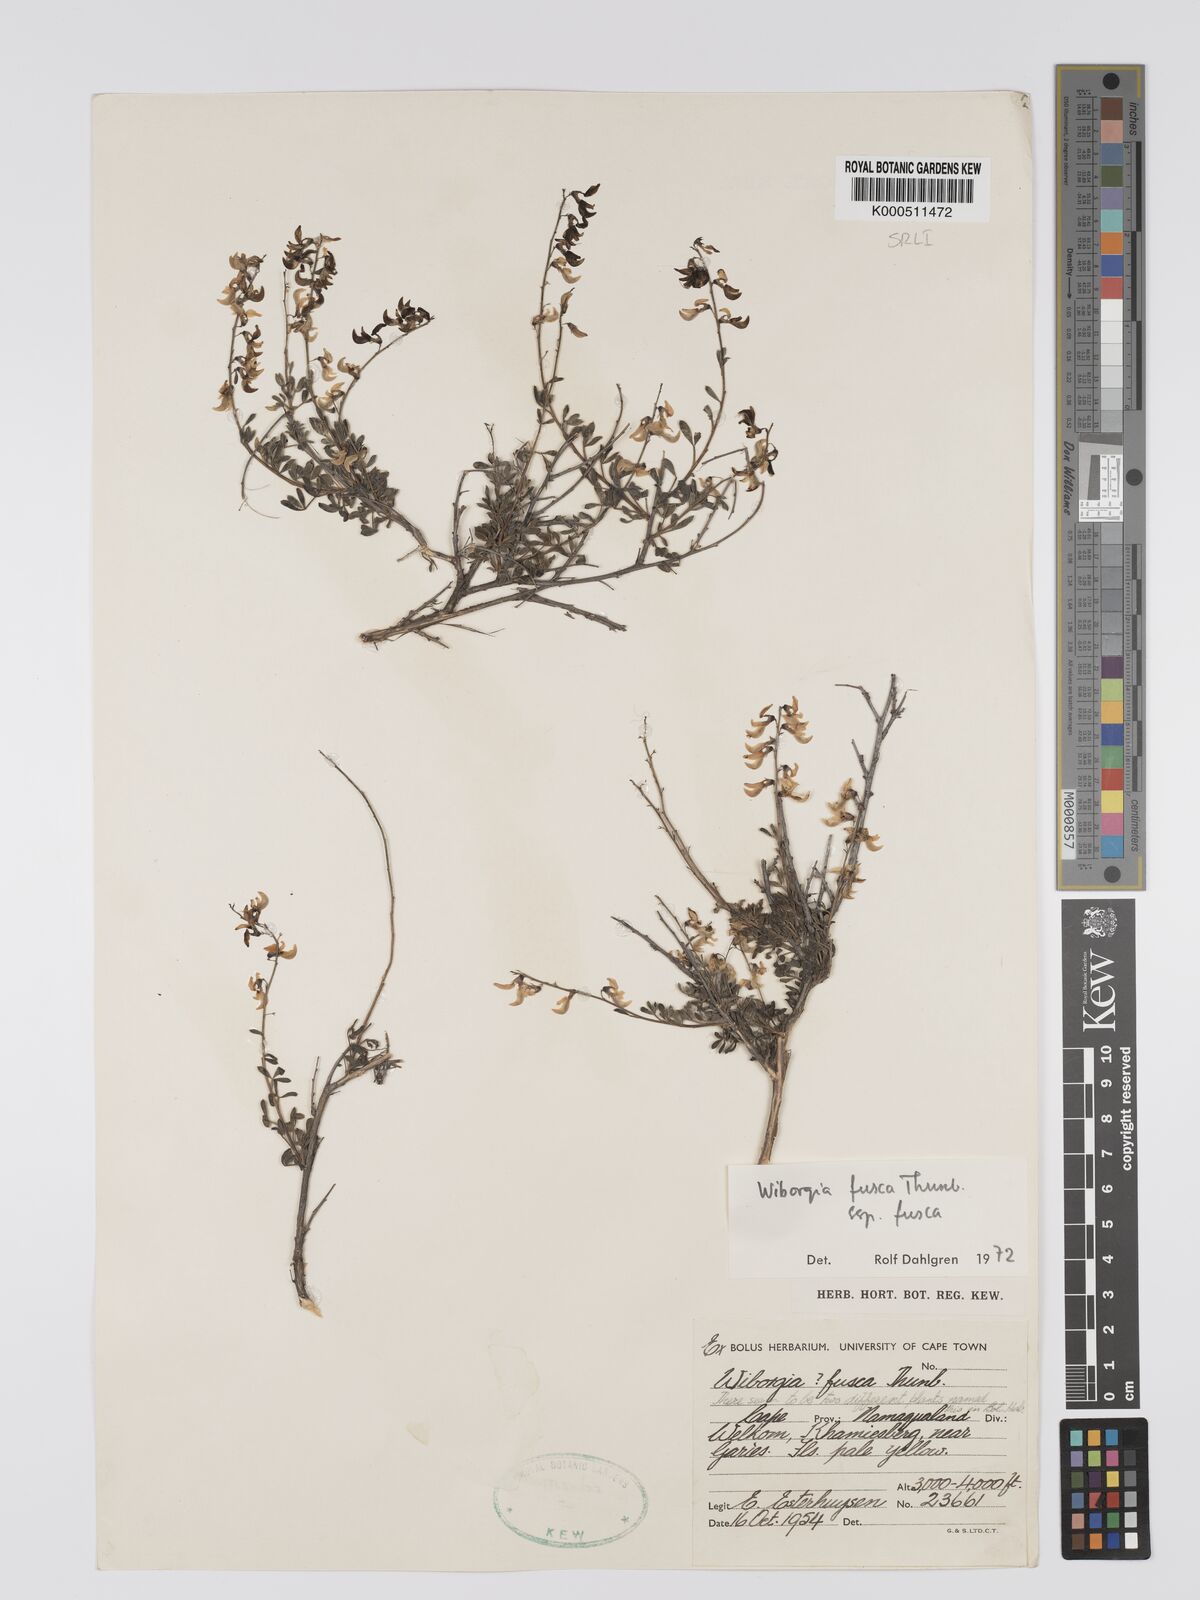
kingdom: Plantae
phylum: Tracheophyta
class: Magnoliopsida
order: Fabales
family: Fabaceae
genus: Wiborgia
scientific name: Wiborgia fusca
